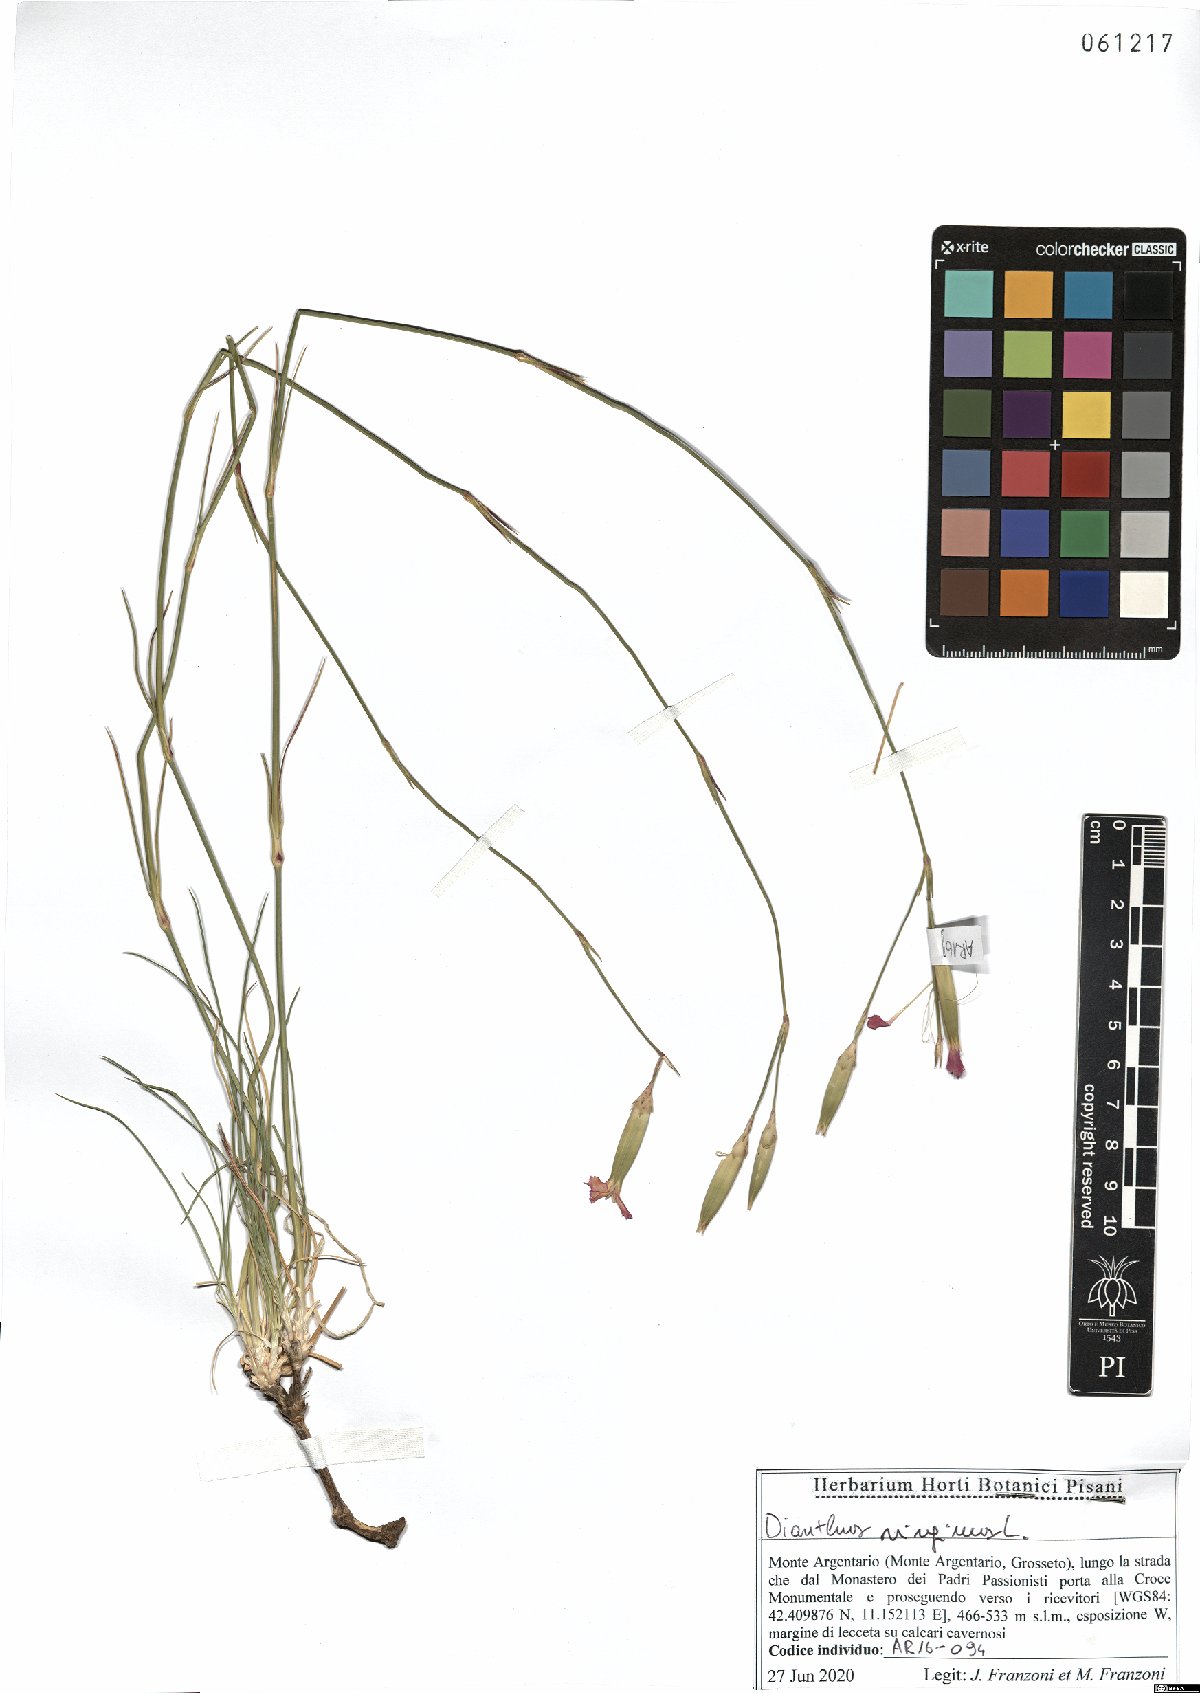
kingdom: Plantae
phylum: Tracheophyta
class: Magnoliopsida
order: Caryophyllales
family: Caryophyllaceae
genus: Dianthus
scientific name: Dianthus virgineus
